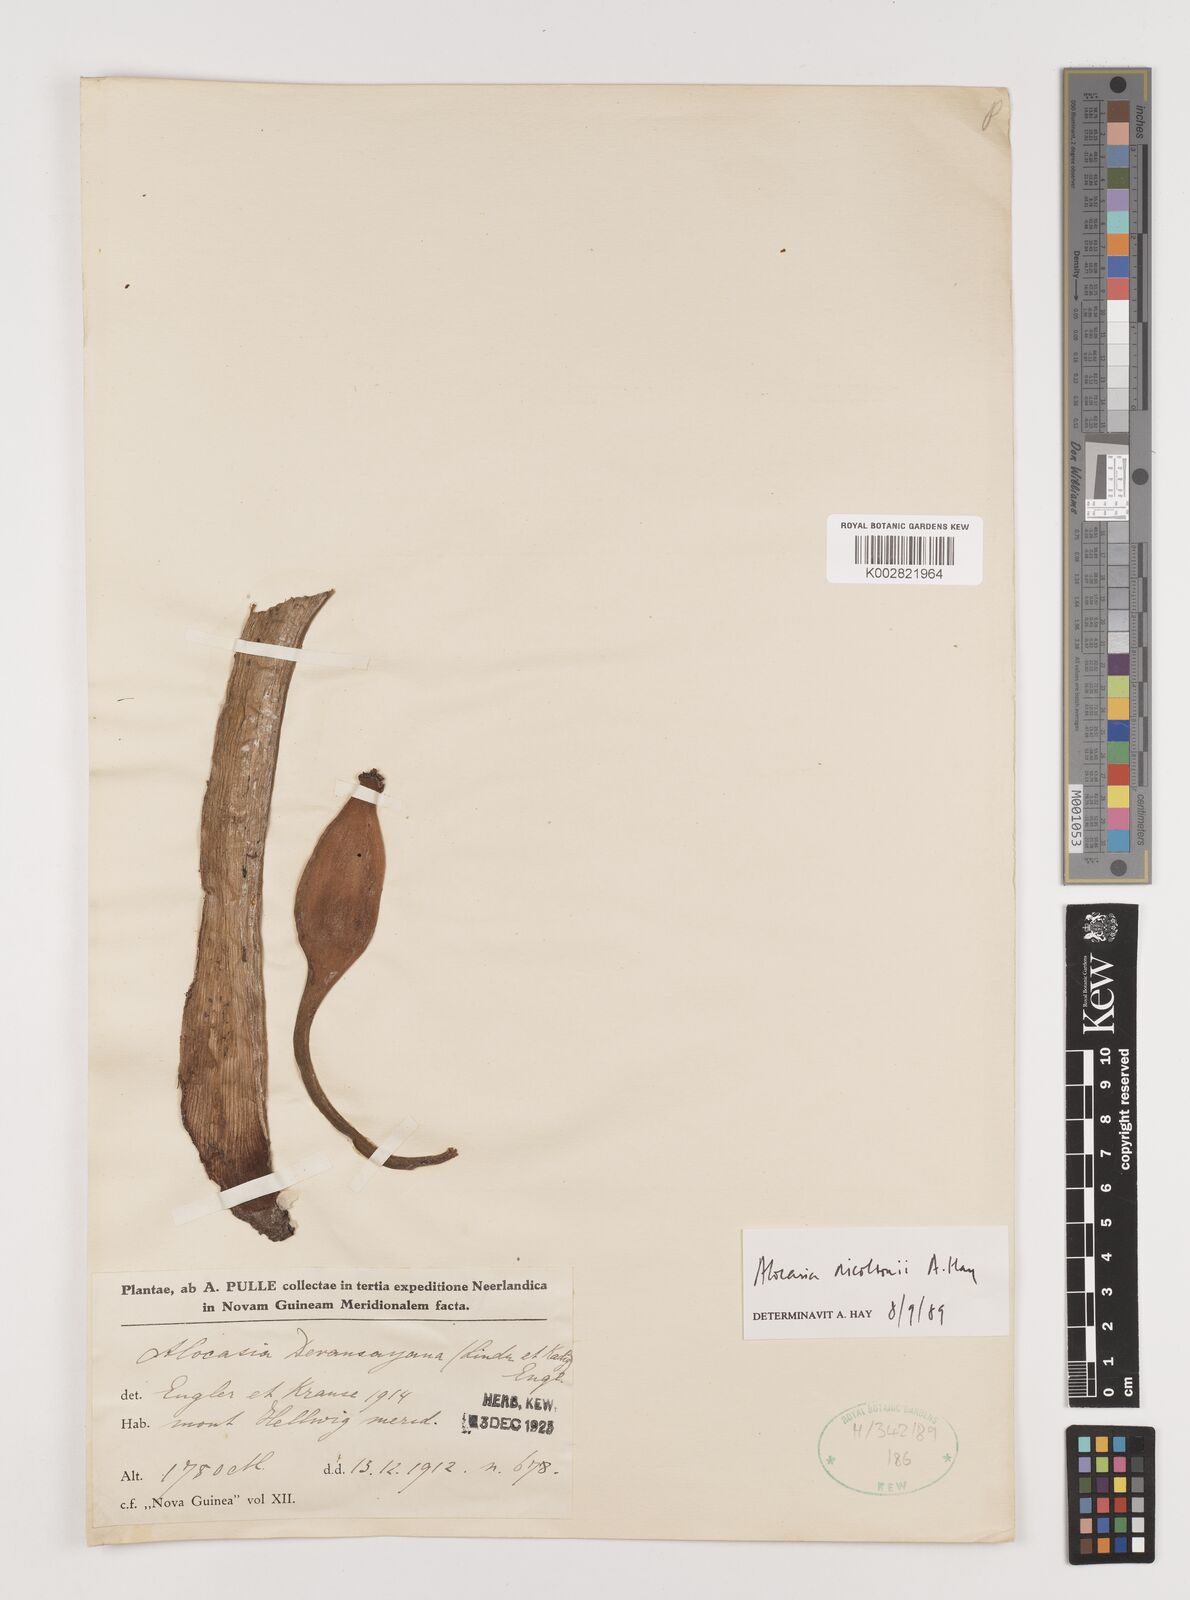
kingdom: Plantae
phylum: Tracheophyta
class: Liliopsida
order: Alismatales
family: Araceae
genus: Alocasia
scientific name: Alocasia nicolsonii
